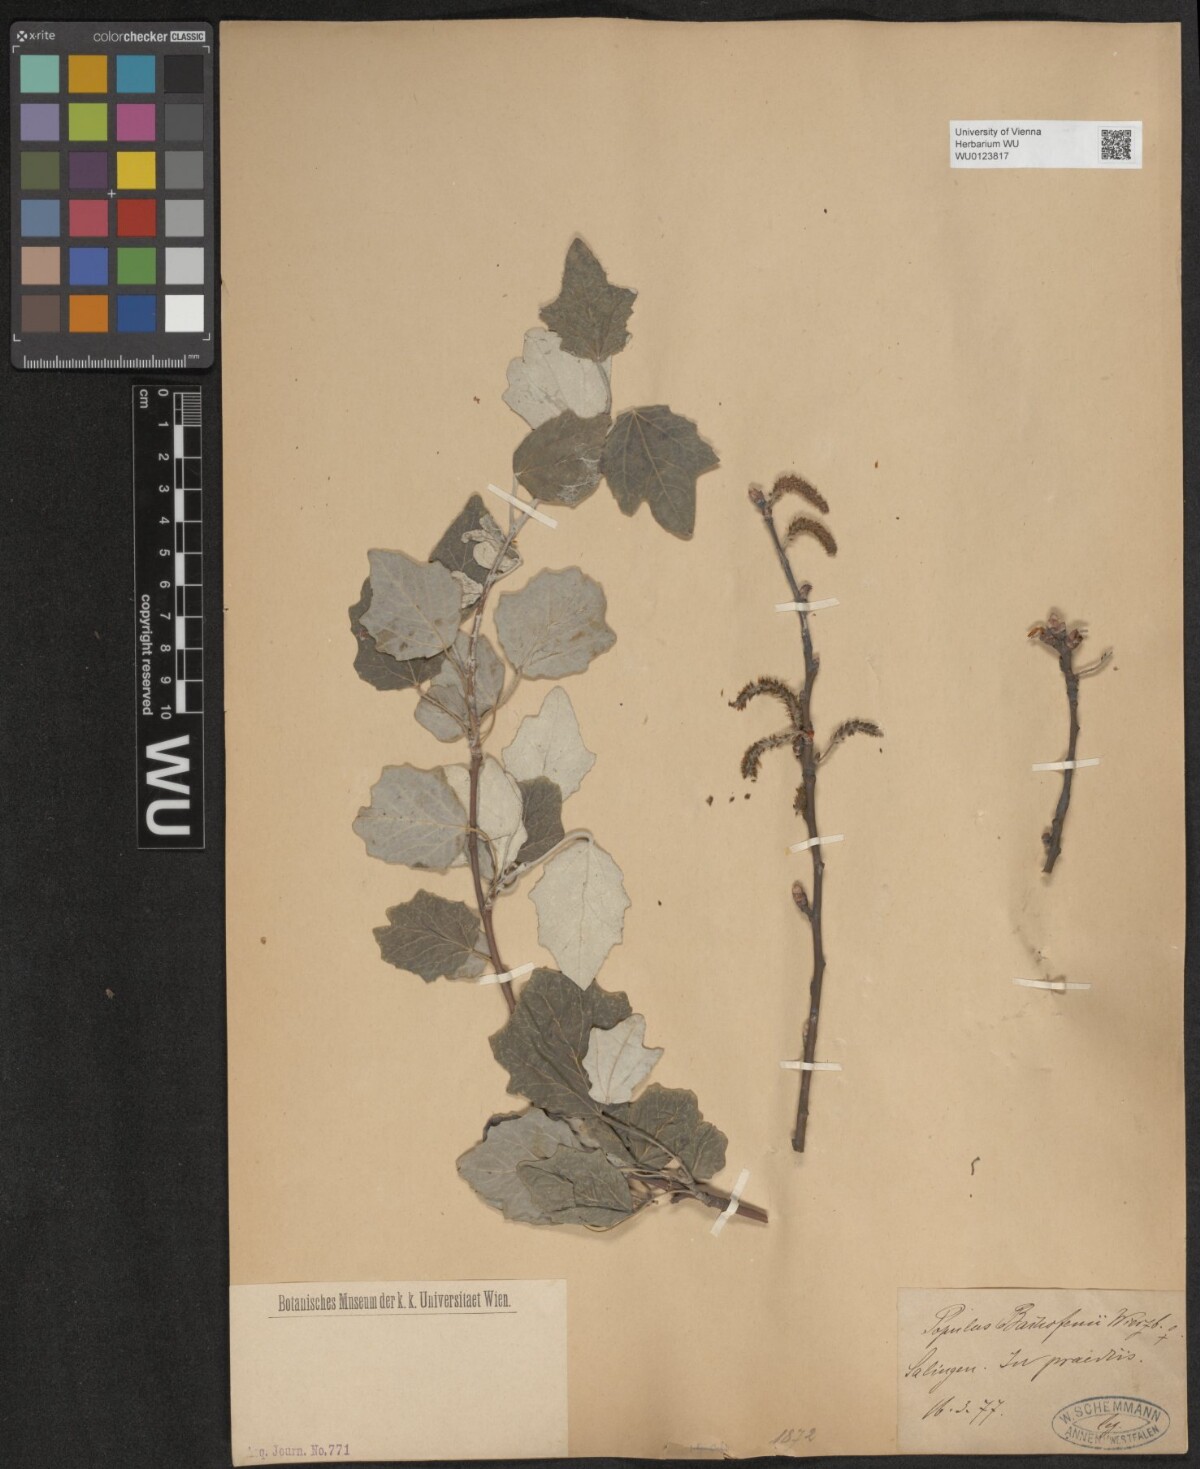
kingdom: Plantae
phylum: Tracheophyta
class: Magnoliopsida
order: Malpighiales
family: Salicaceae
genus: Populus
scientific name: Populus alba
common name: White poplar
